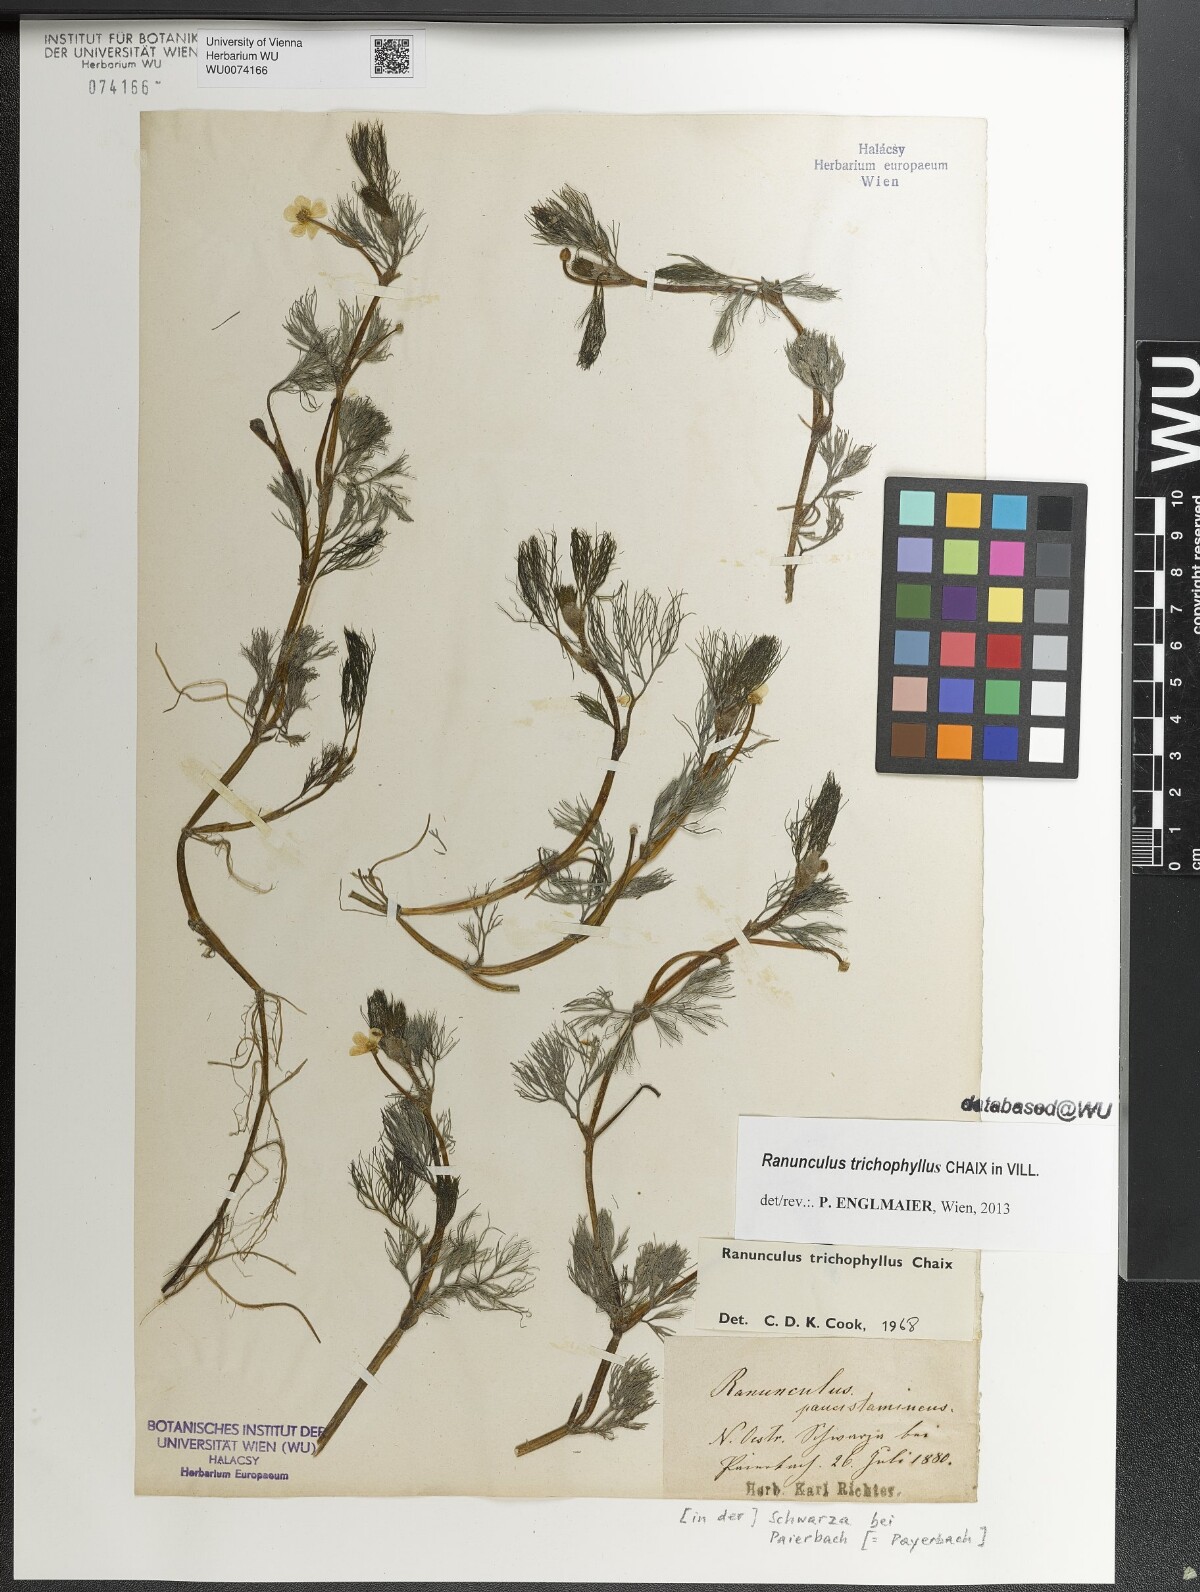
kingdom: Plantae
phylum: Tracheophyta
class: Magnoliopsida
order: Ranunculales
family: Ranunculaceae
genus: Ranunculus
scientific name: Ranunculus trichophyllus
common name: Thread-leaved water-crowfoot
